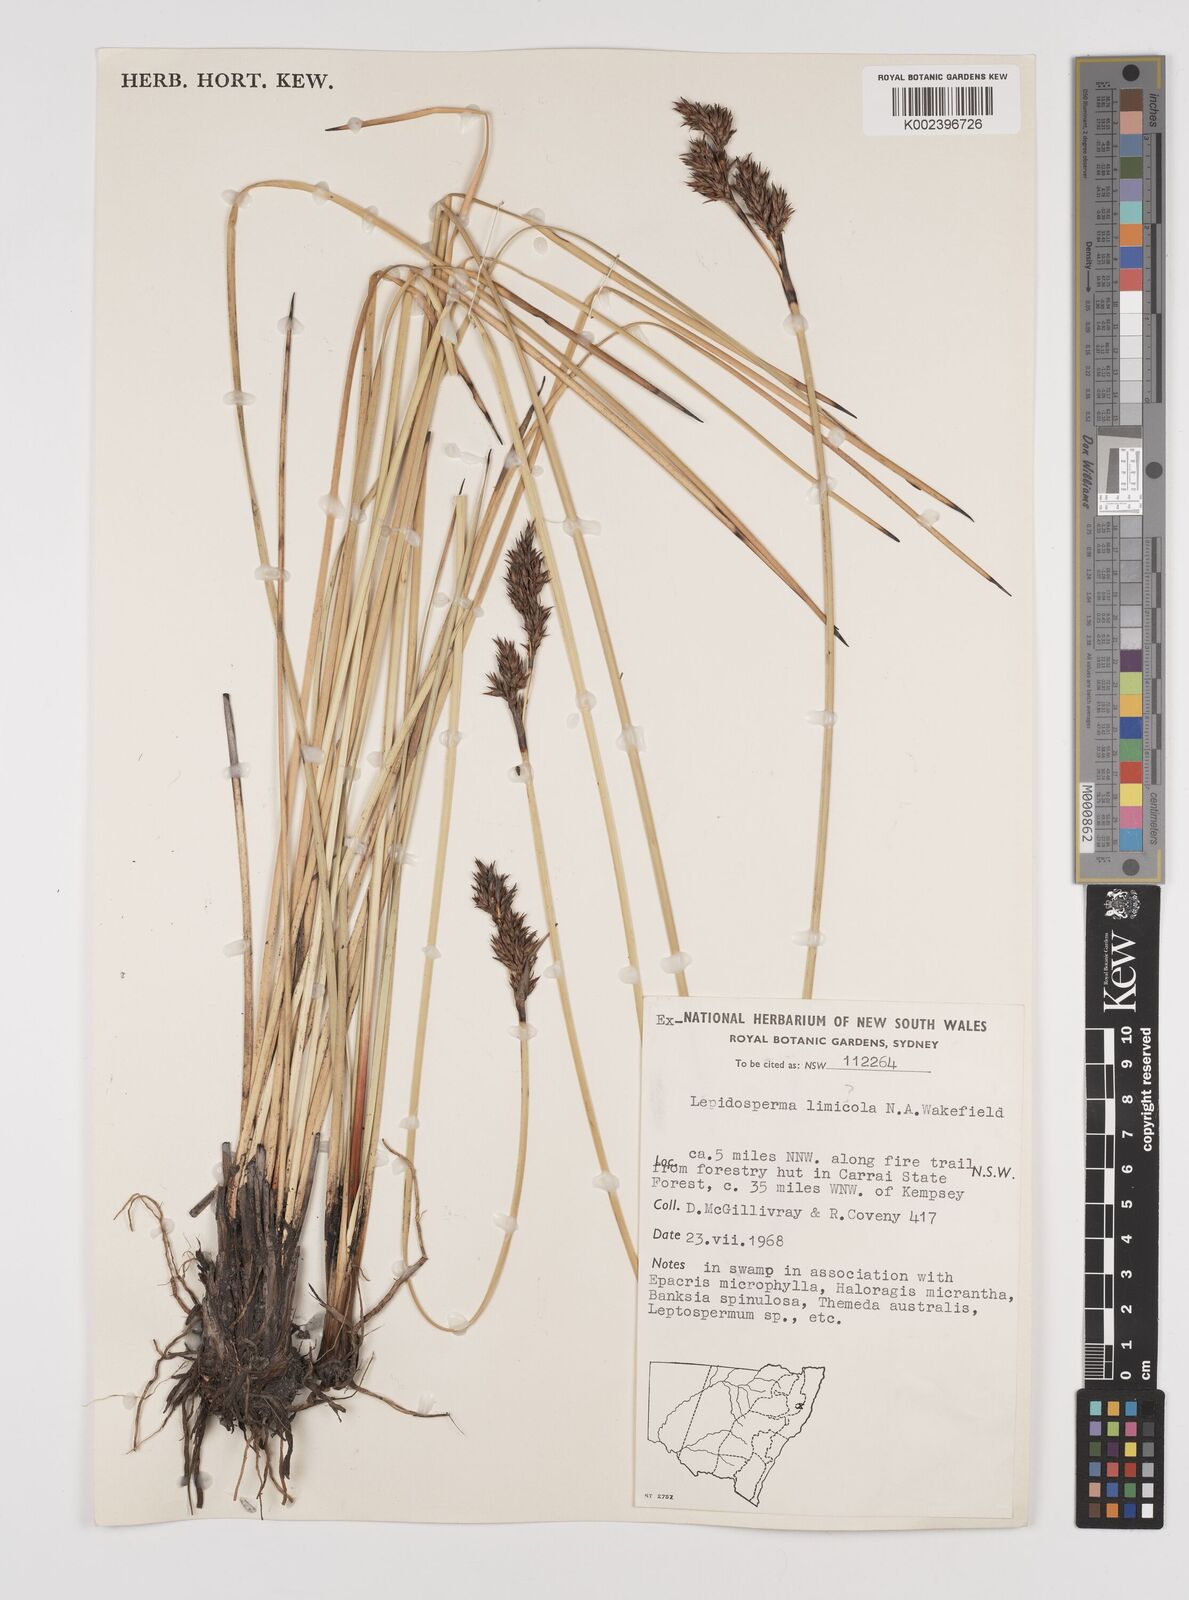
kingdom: Plantae
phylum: Tracheophyta
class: Liliopsida
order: Poales
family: Cyperaceae
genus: Lepidosperma
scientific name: Lepidosperma limicola
